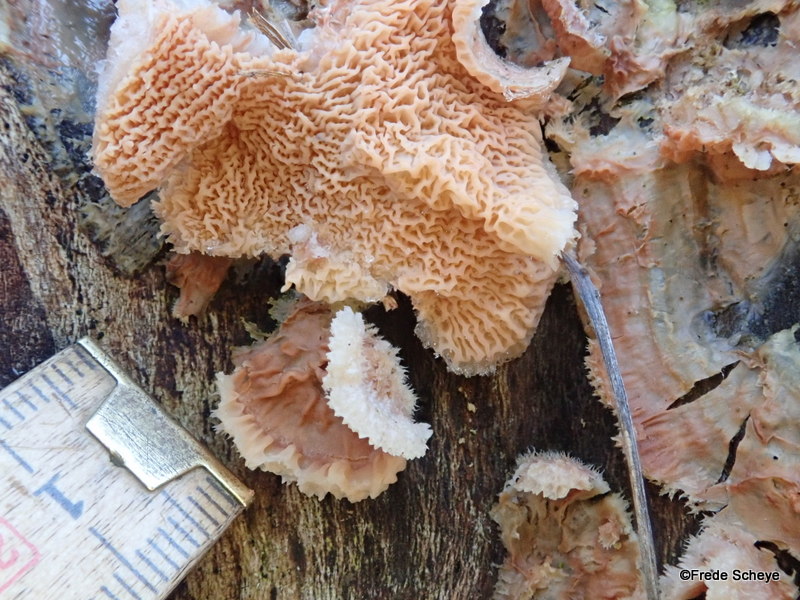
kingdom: Fungi
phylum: Basidiomycota
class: Agaricomycetes
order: Polyporales
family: Meruliaceae
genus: Phlebia
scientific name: Phlebia tremellosa
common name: bævrende åresvamp
